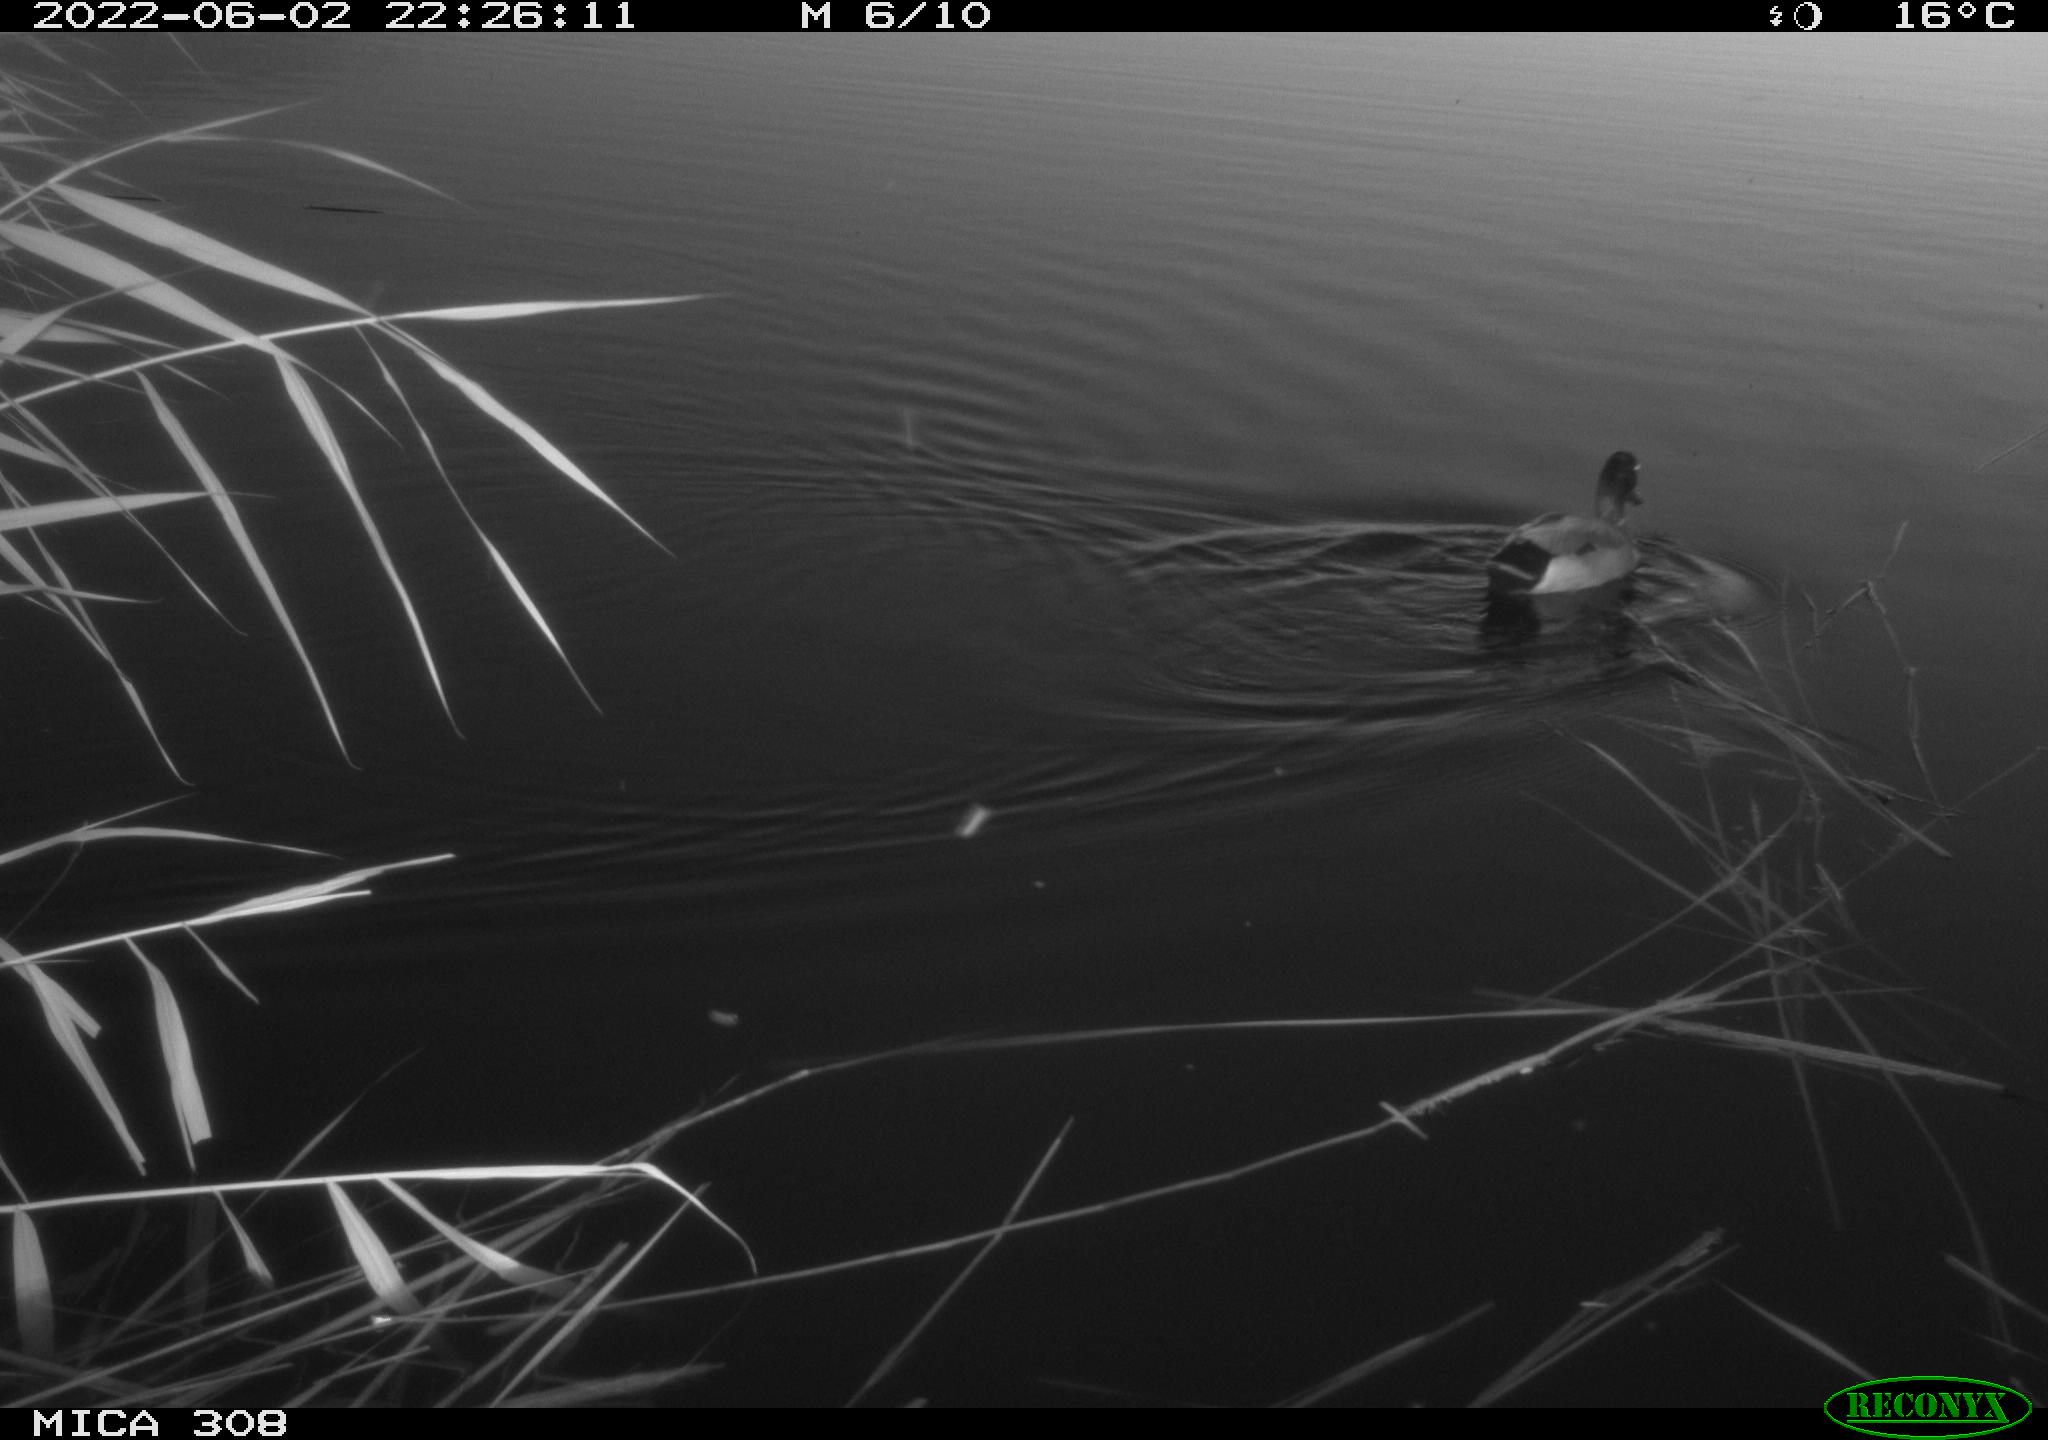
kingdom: Animalia
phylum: Chordata
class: Aves
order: Anseriformes
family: Anatidae
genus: Anas
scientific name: Anas platyrhynchos
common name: Mallard
